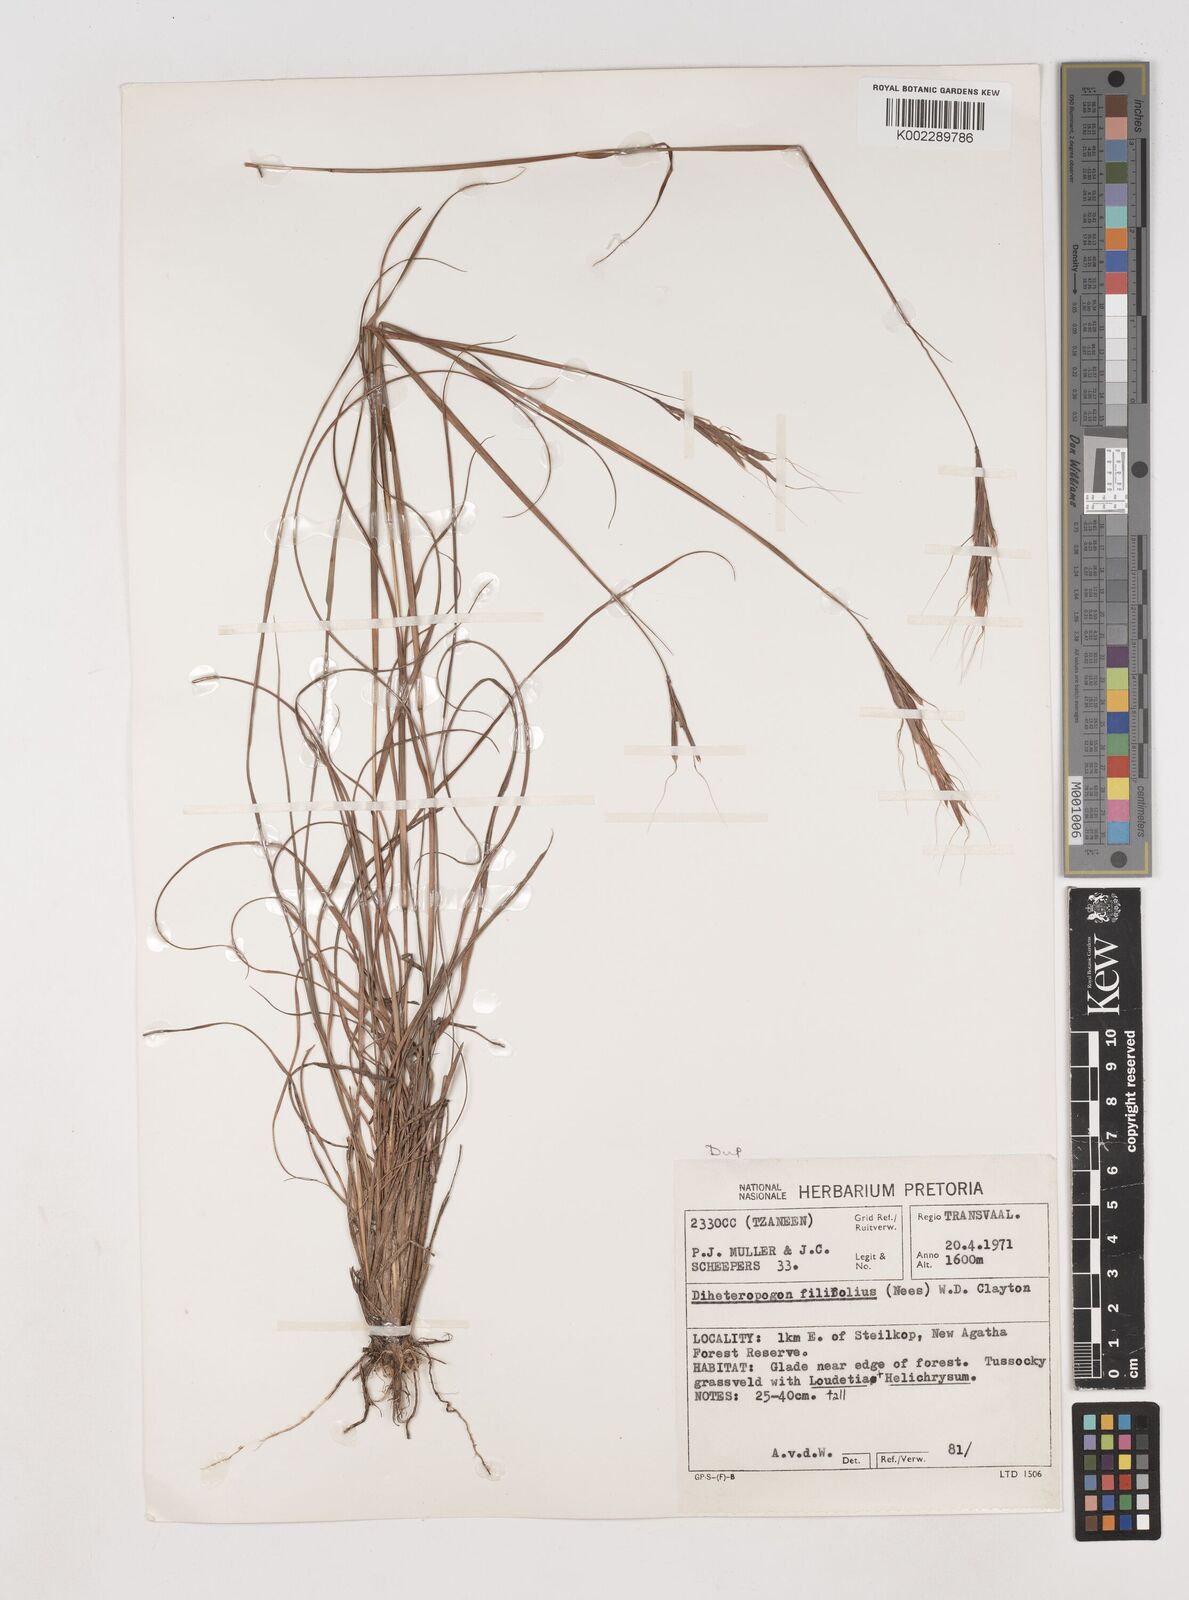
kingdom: Plantae
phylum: Tracheophyta
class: Liliopsida
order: Poales
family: Poaceae
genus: Diheteropogon
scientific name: Diheteropogon filifolius
